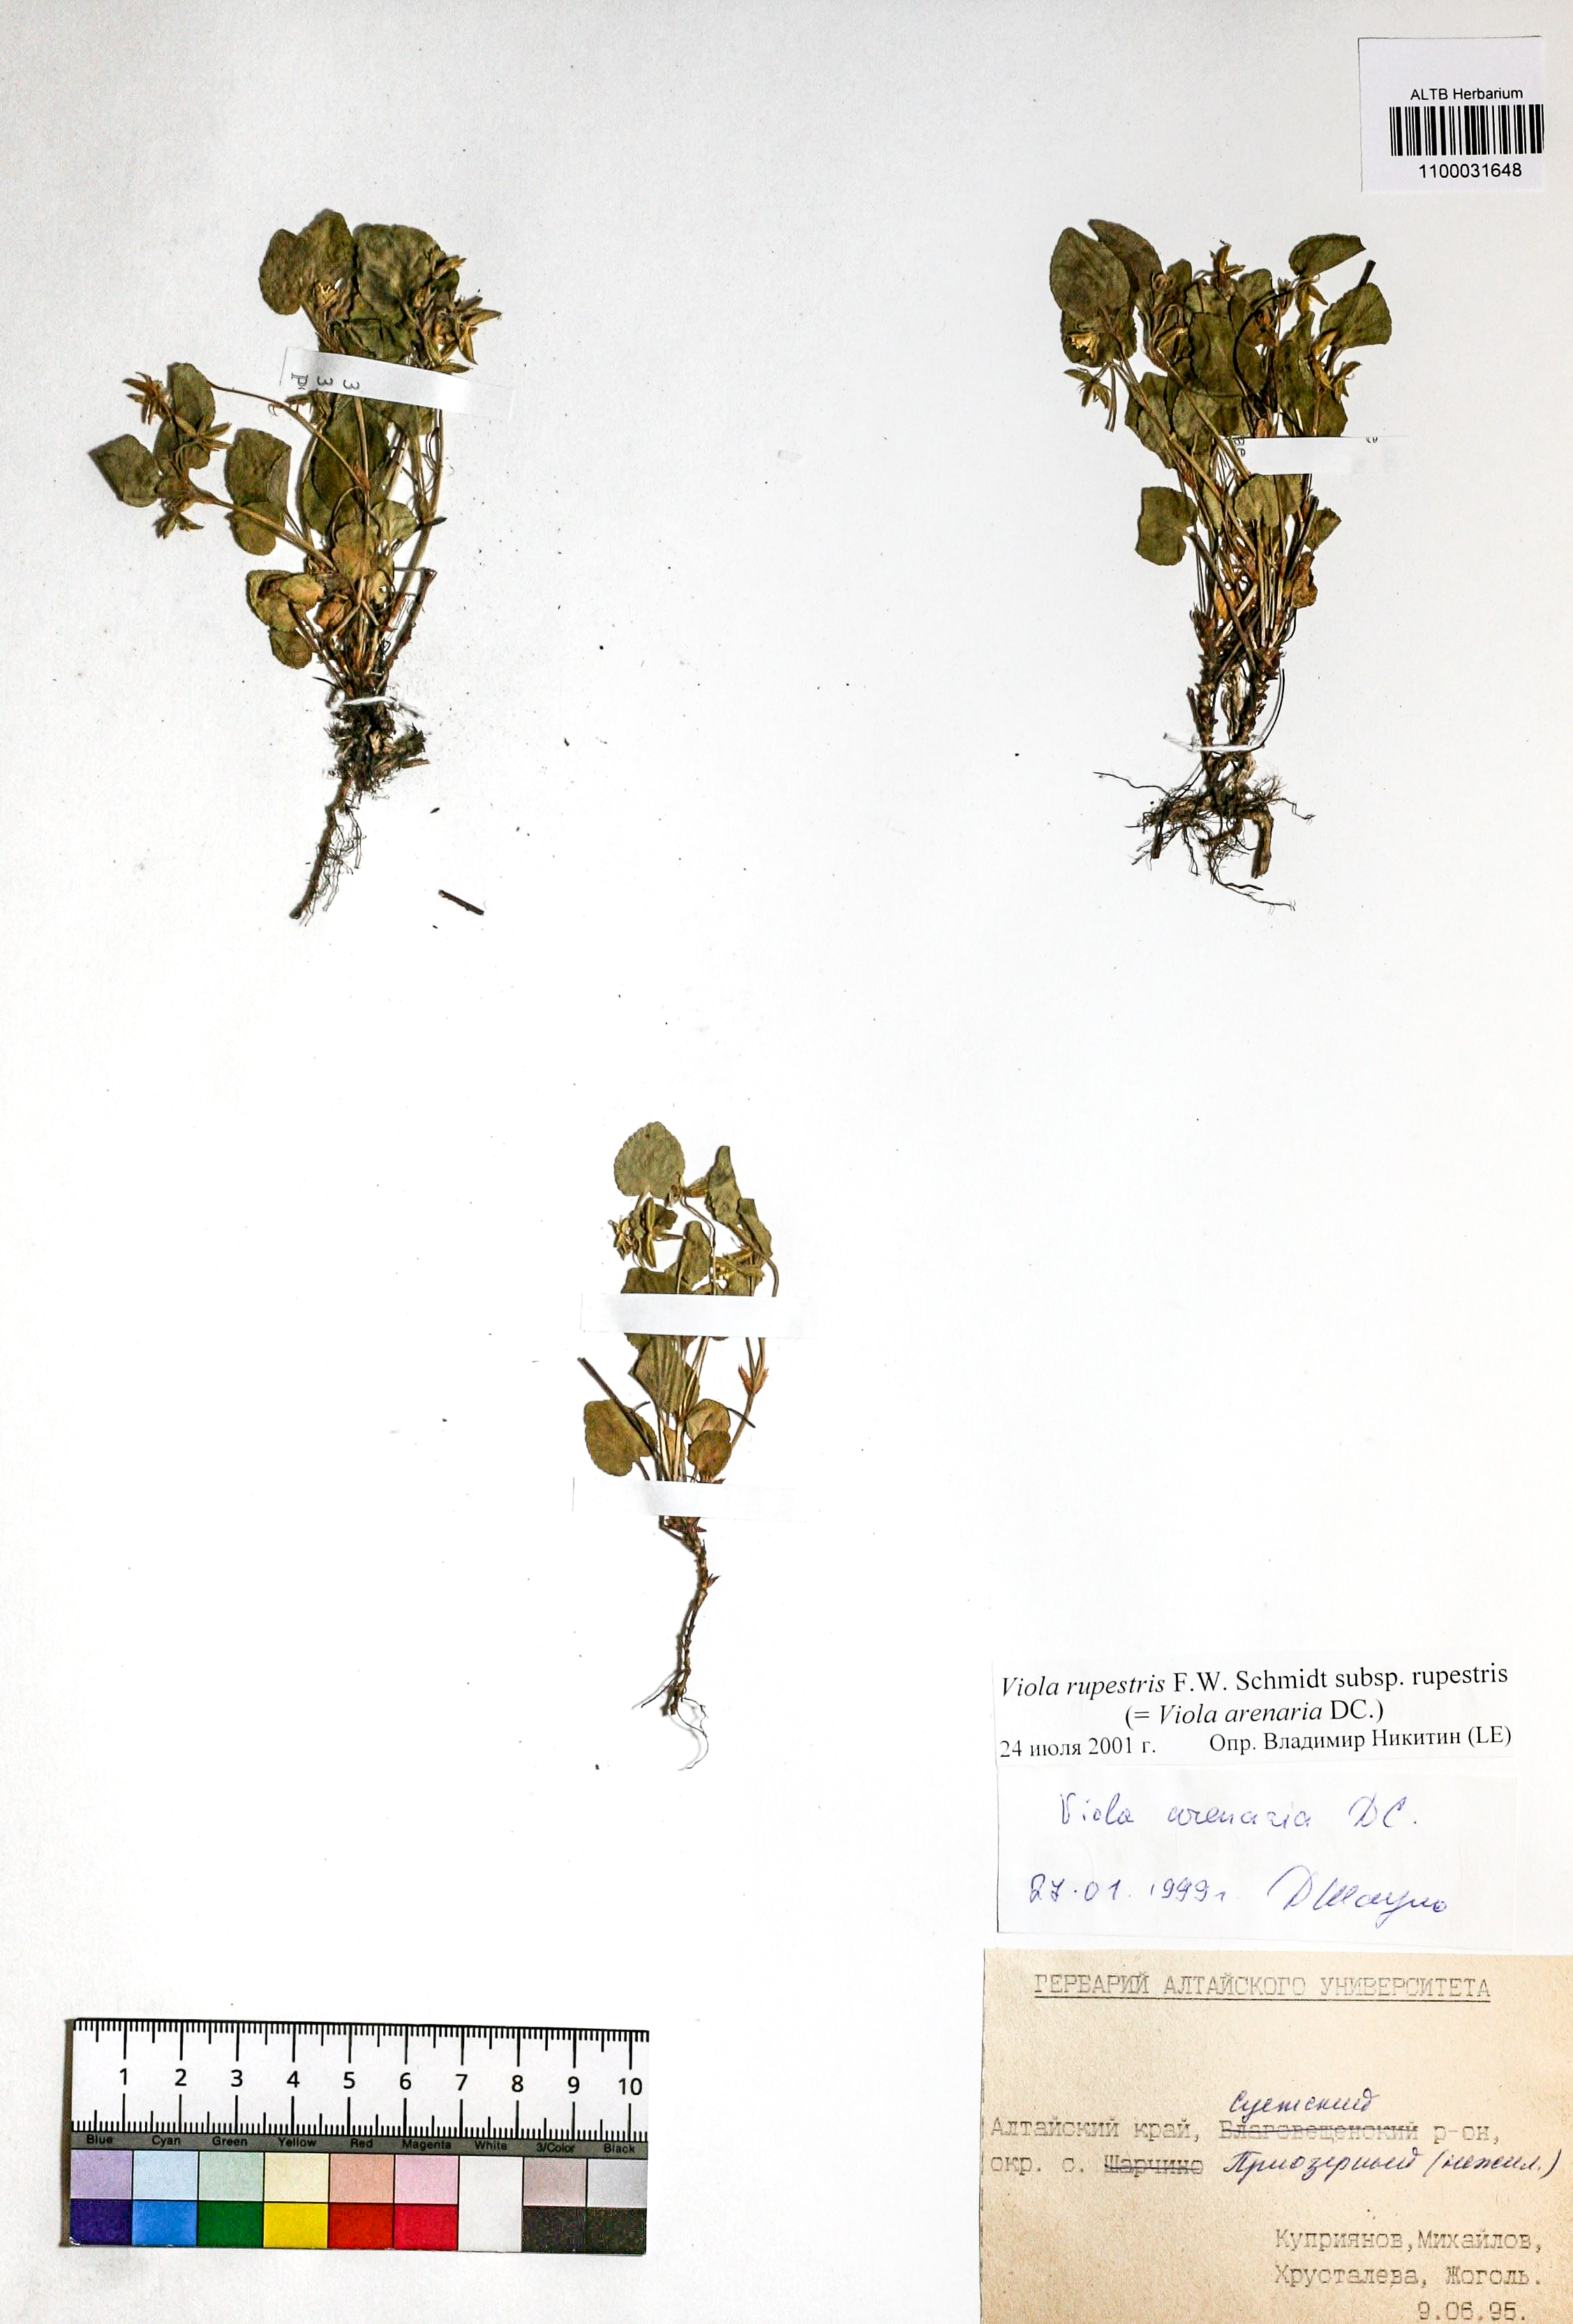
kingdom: Plantae
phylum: Tracheophyta
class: Magnoliopsida
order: Malpighiales
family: Violaceae
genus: Viola
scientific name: Viola rupestris
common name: Teesdale violet
